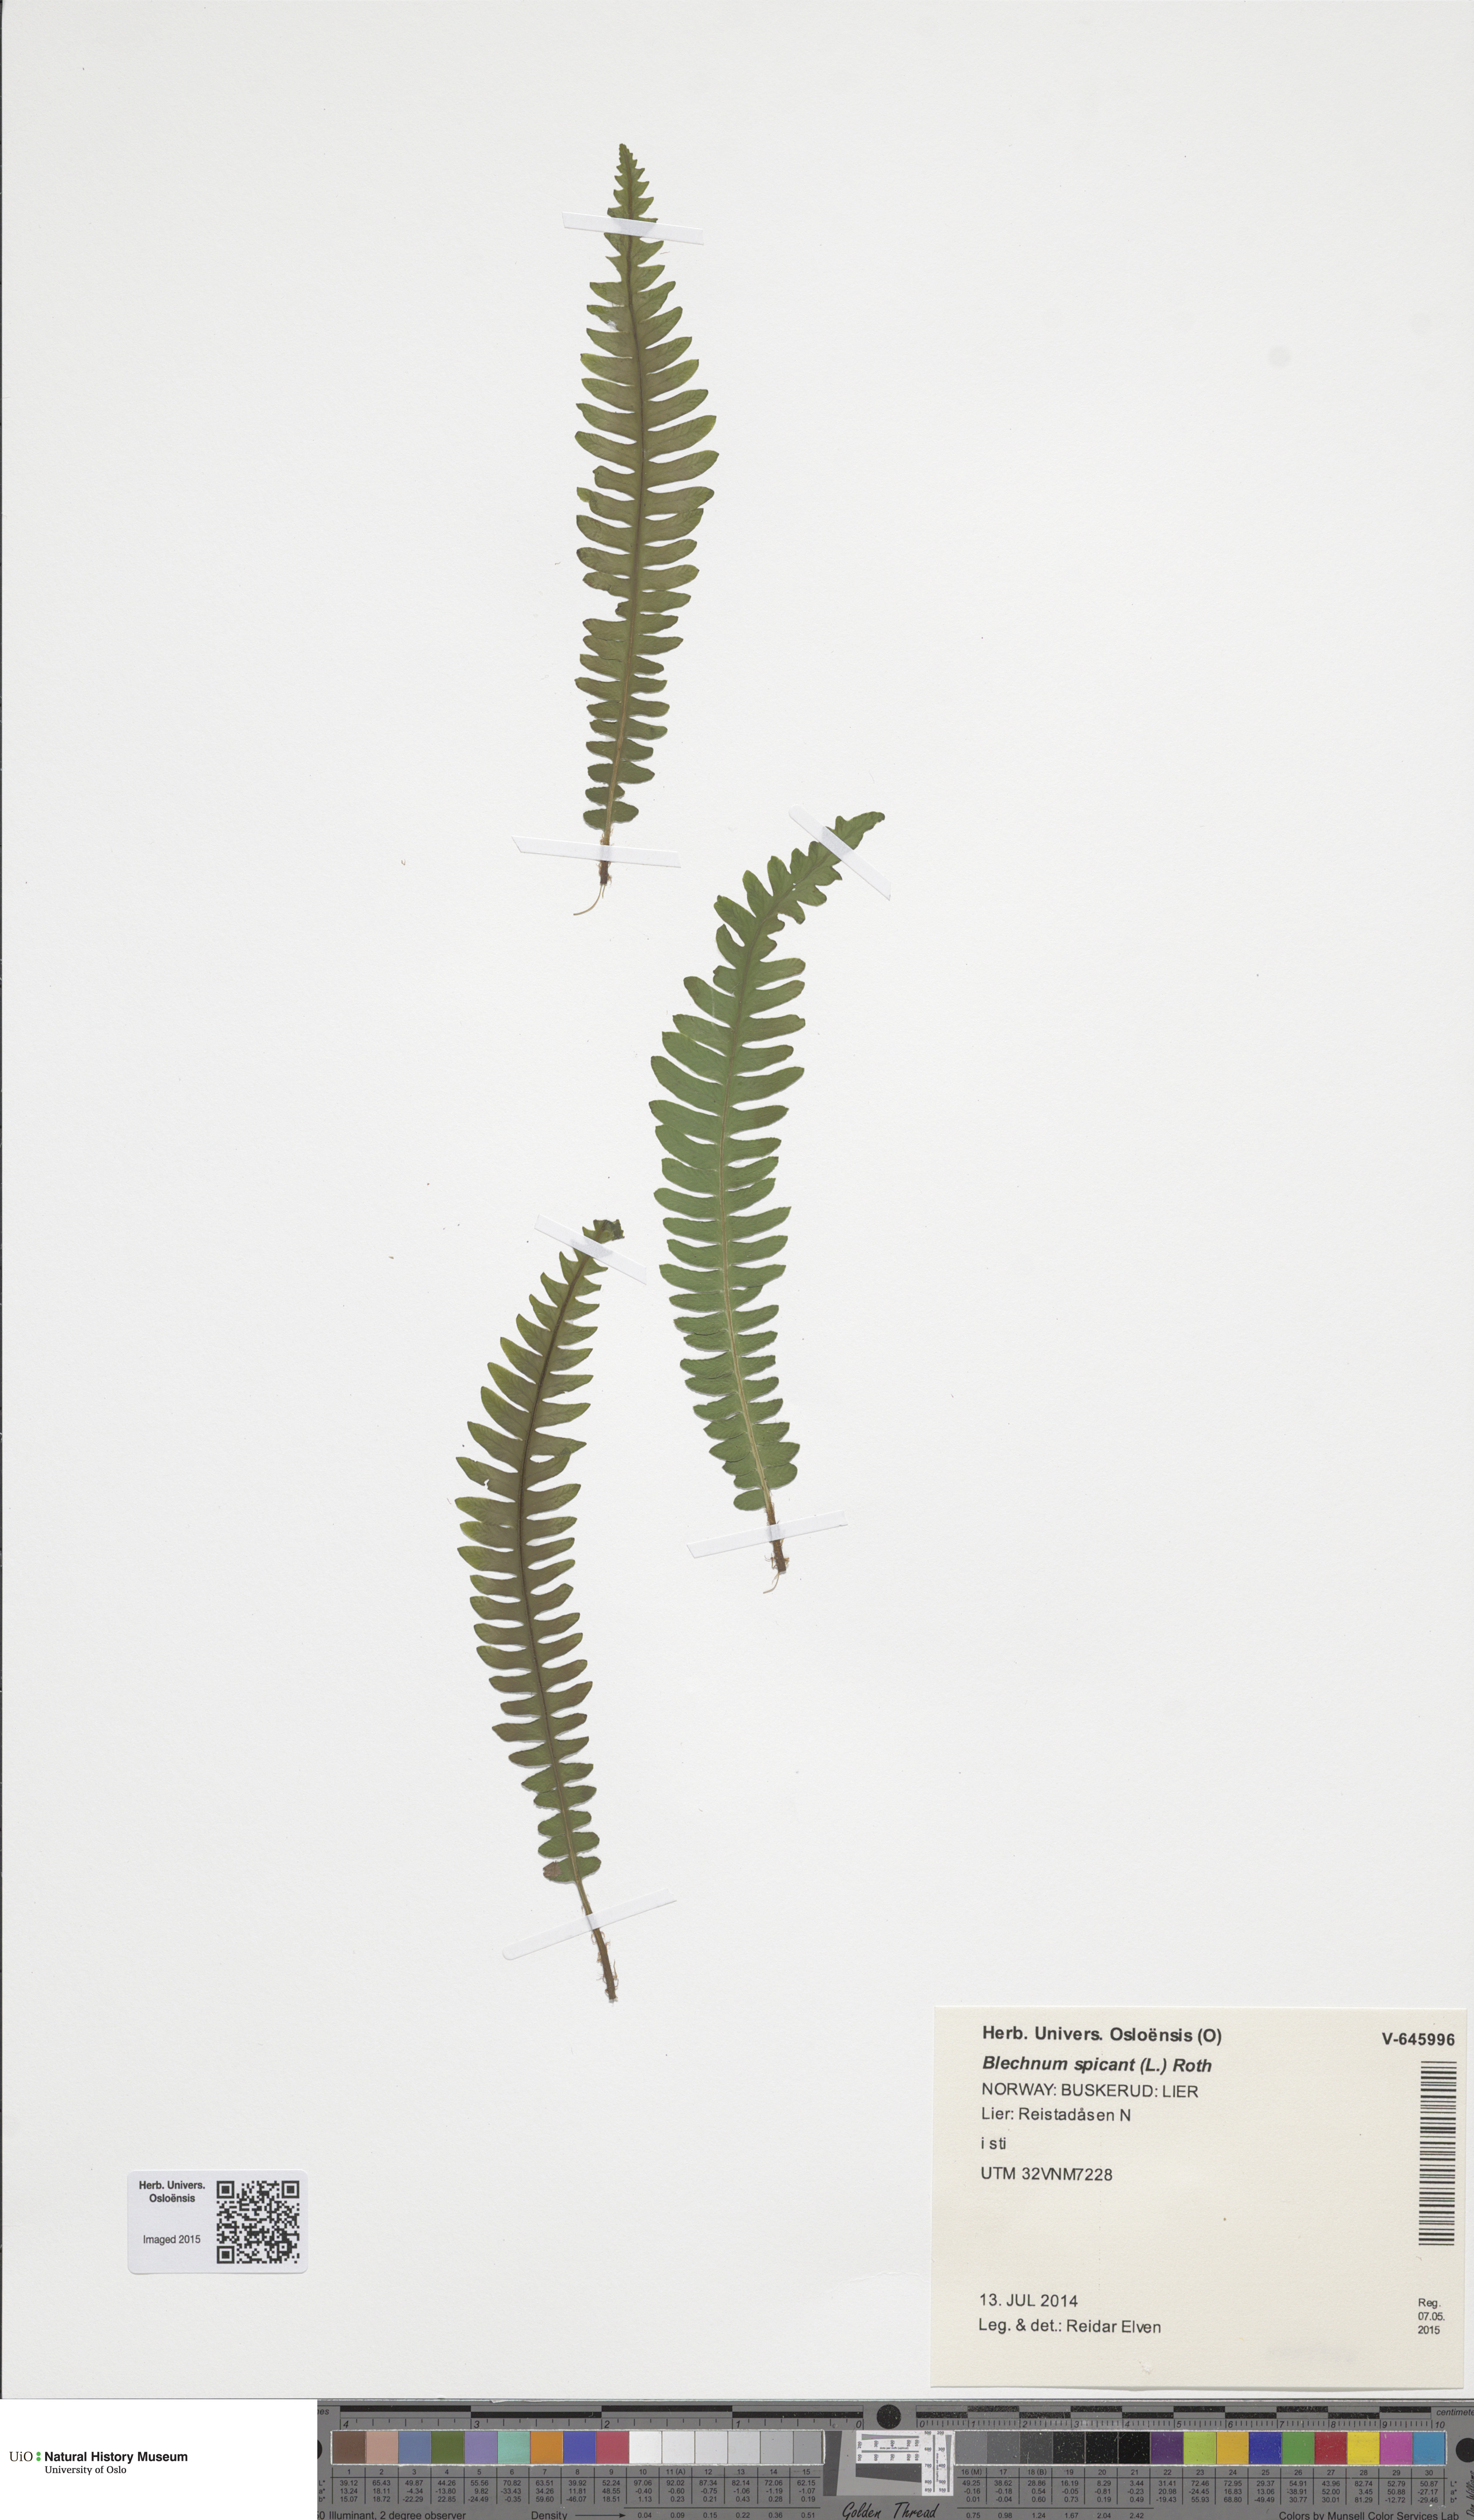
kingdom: Plantae
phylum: Tracheophyta
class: Polypodiopsida
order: Polypodiales
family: Blechnaceae
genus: Struthiopteris
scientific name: Struthiopteris spicant
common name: Deer fern
